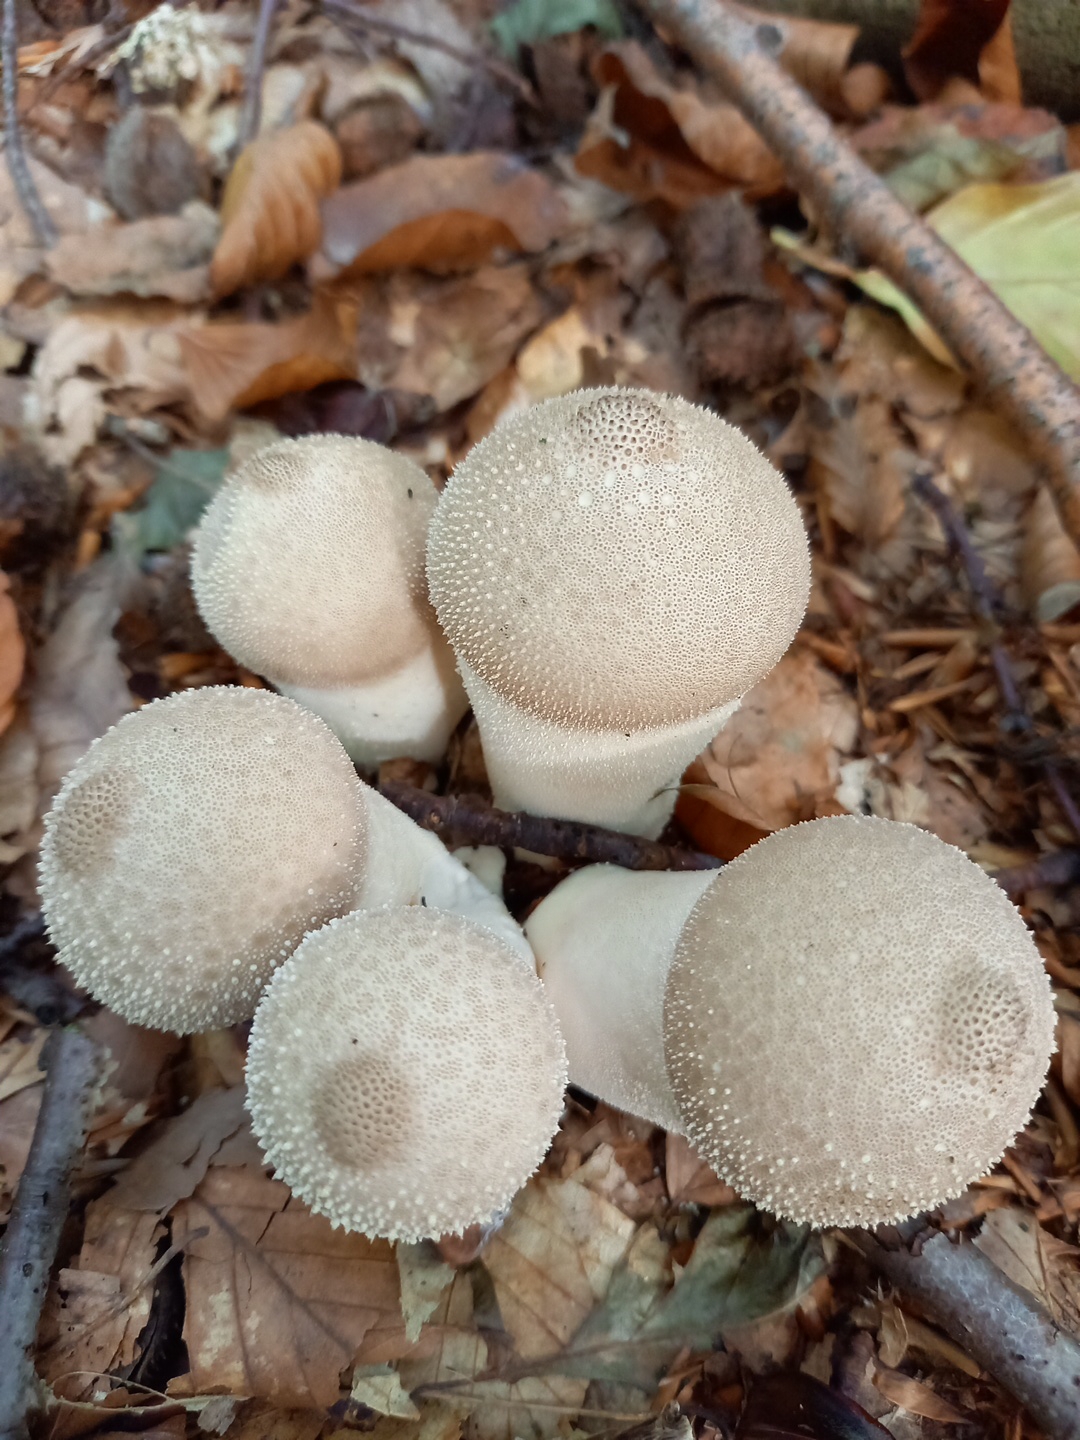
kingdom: Fungi
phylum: Basidiomycota
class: Agaricomycetes
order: Agaricales
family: Lycoperdaceae
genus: Lycoperdon
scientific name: Lycoperdon perlatum
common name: krystal-støvbold
